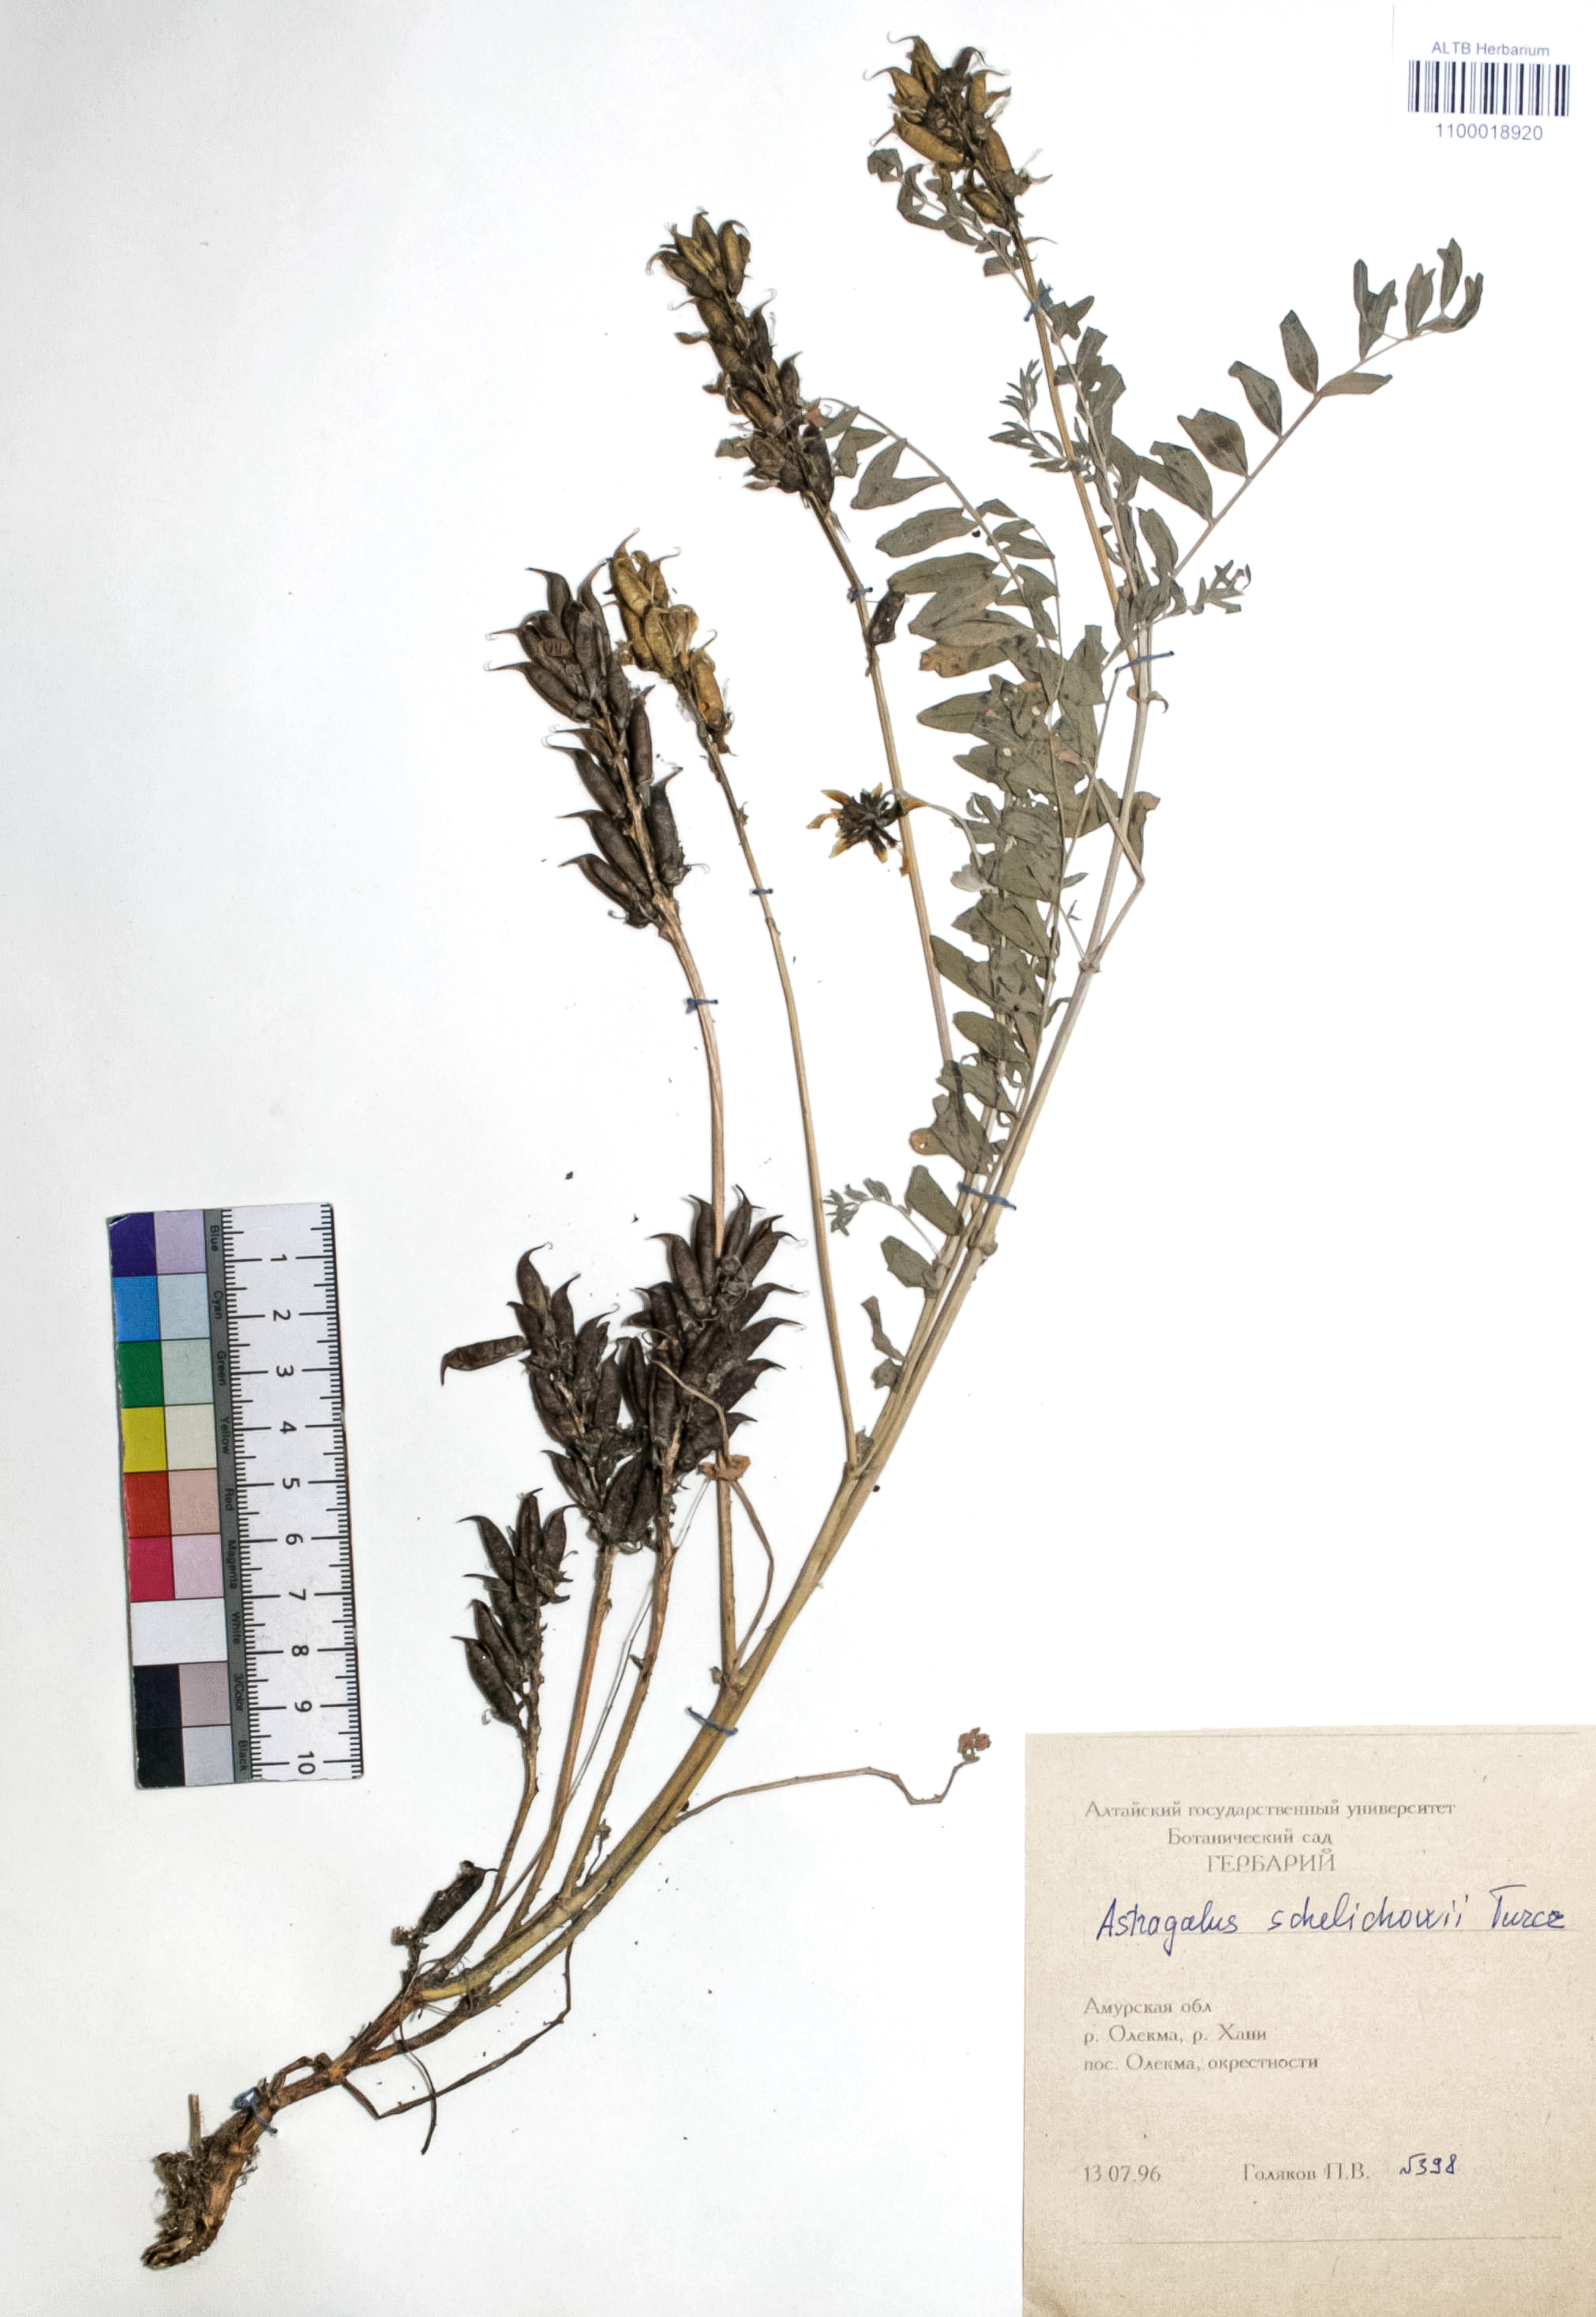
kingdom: Plantae
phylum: Tracheophyta
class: Magnoliopsida
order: Fabales
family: Fabaceae
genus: Astragalus
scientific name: Astragalus schelichowii
